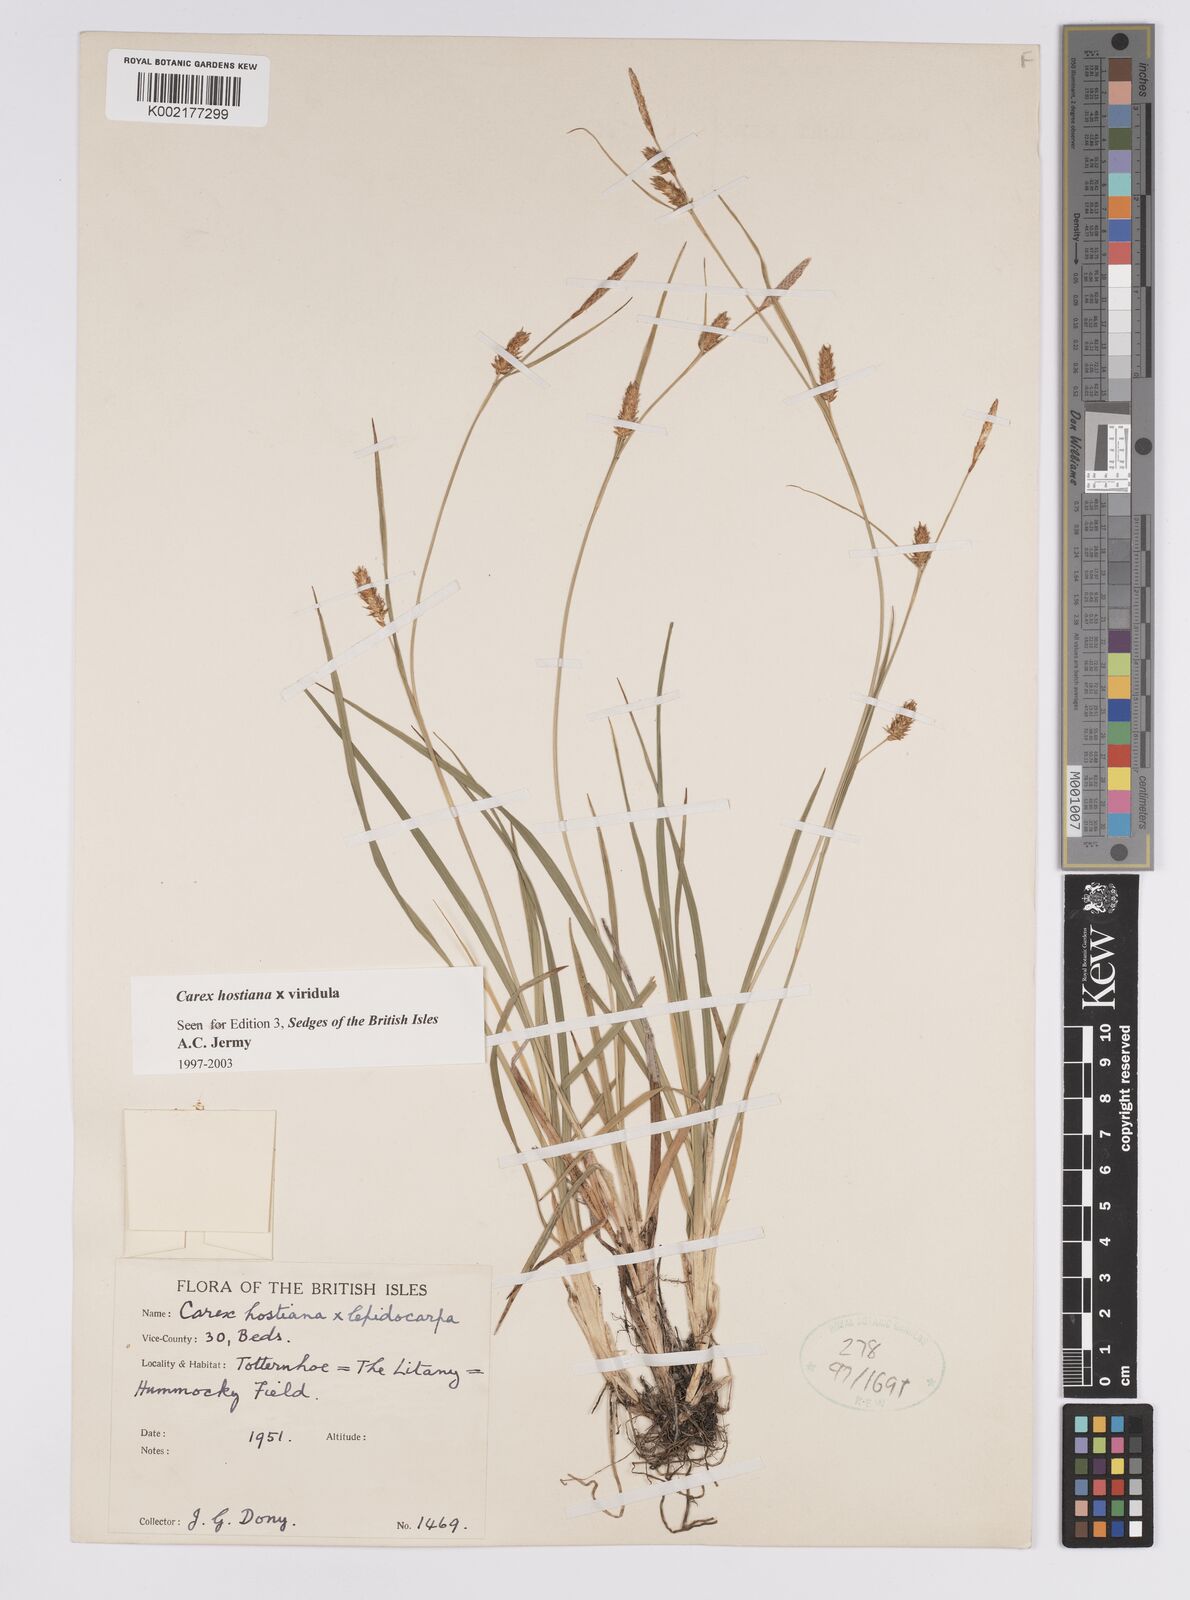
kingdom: Plantae
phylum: Tracheophyta
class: Liliopsida
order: Poales
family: Cyperaceae
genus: Carex
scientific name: Carex hostiana
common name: Tawny sedge
